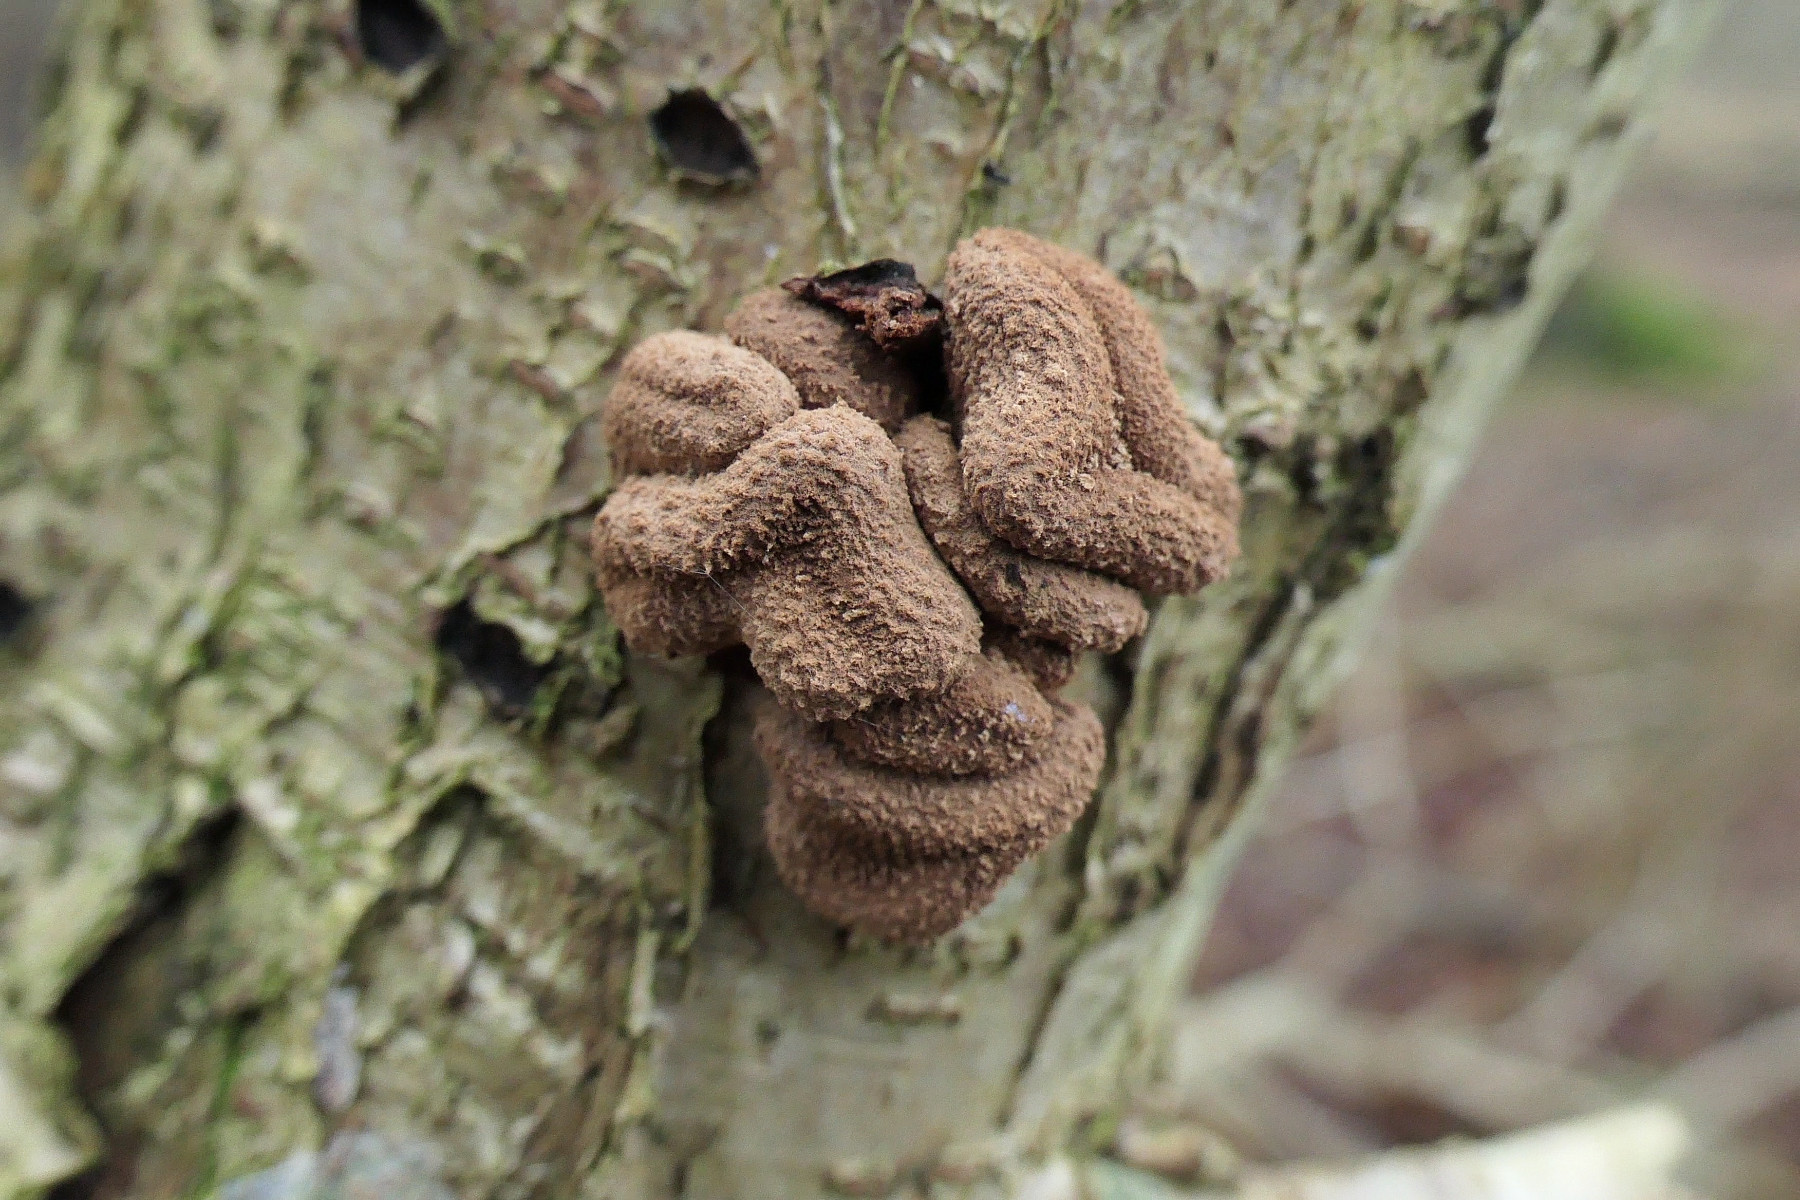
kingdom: Fungi
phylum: Ascomycota
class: Leotiomycetes
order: Helotiales
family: Cenangiaceae
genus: Encoelia
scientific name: Encoelia furfuracea
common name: hassel-læderskive
